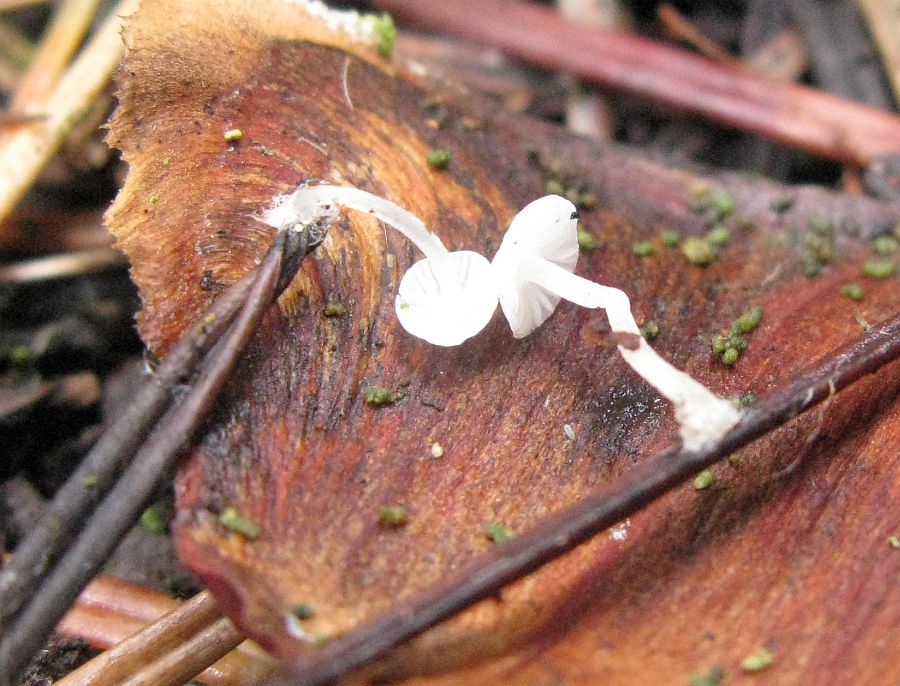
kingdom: Fungi
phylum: Basidiomycota
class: Agaricomycetes
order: Agaricales
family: Mycenaceae
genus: Hemimycena
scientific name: Hemimycena lactea
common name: mælkehvid huesvamp
